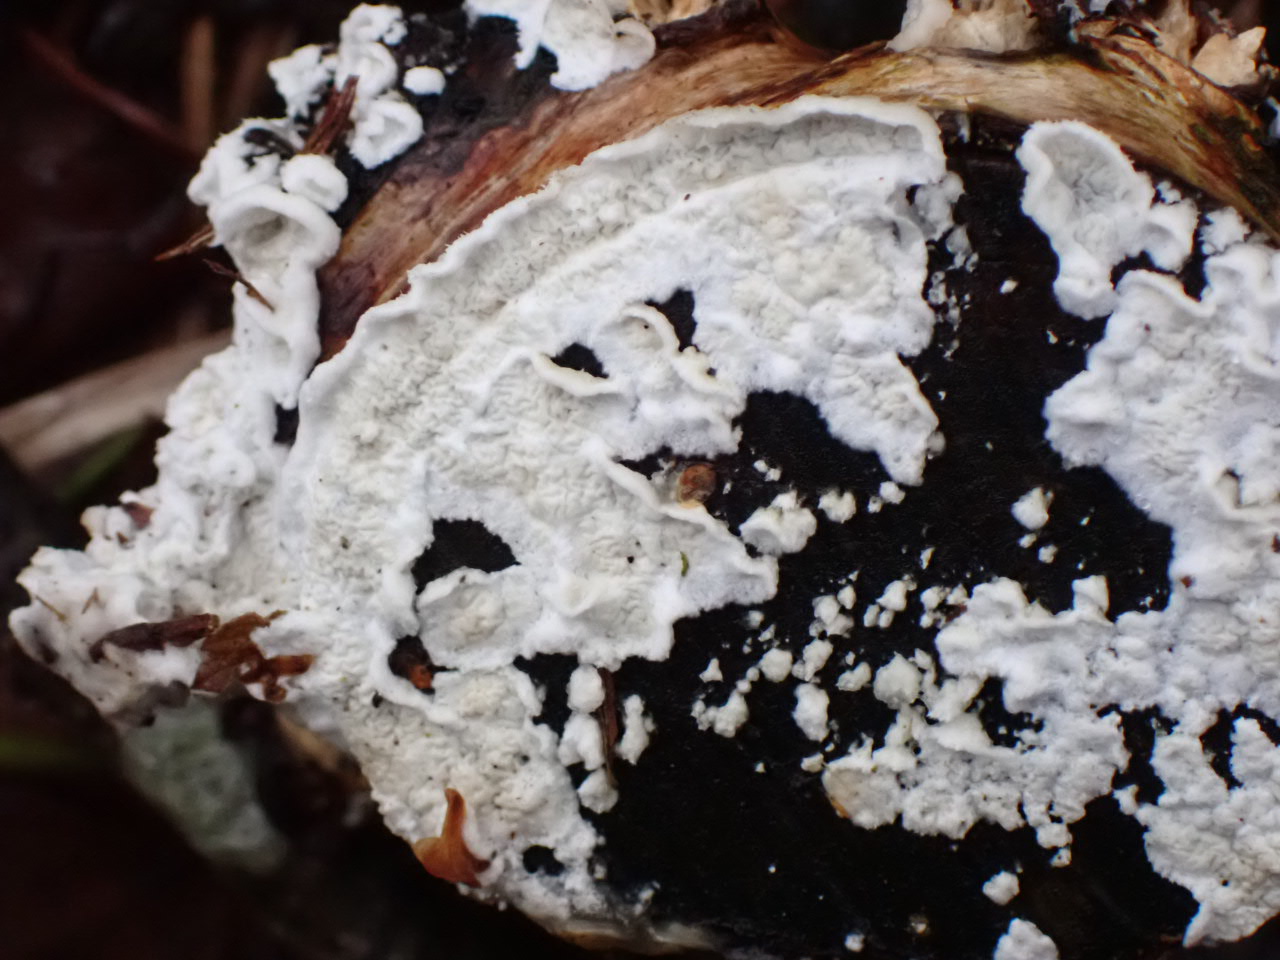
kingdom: Fungi
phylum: Basidiomycota
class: Agaricomycetes
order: Polyporales
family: Irpicaceae
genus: Byssomerulius
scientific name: Byssomerulius corium
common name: læder-åresvamp
